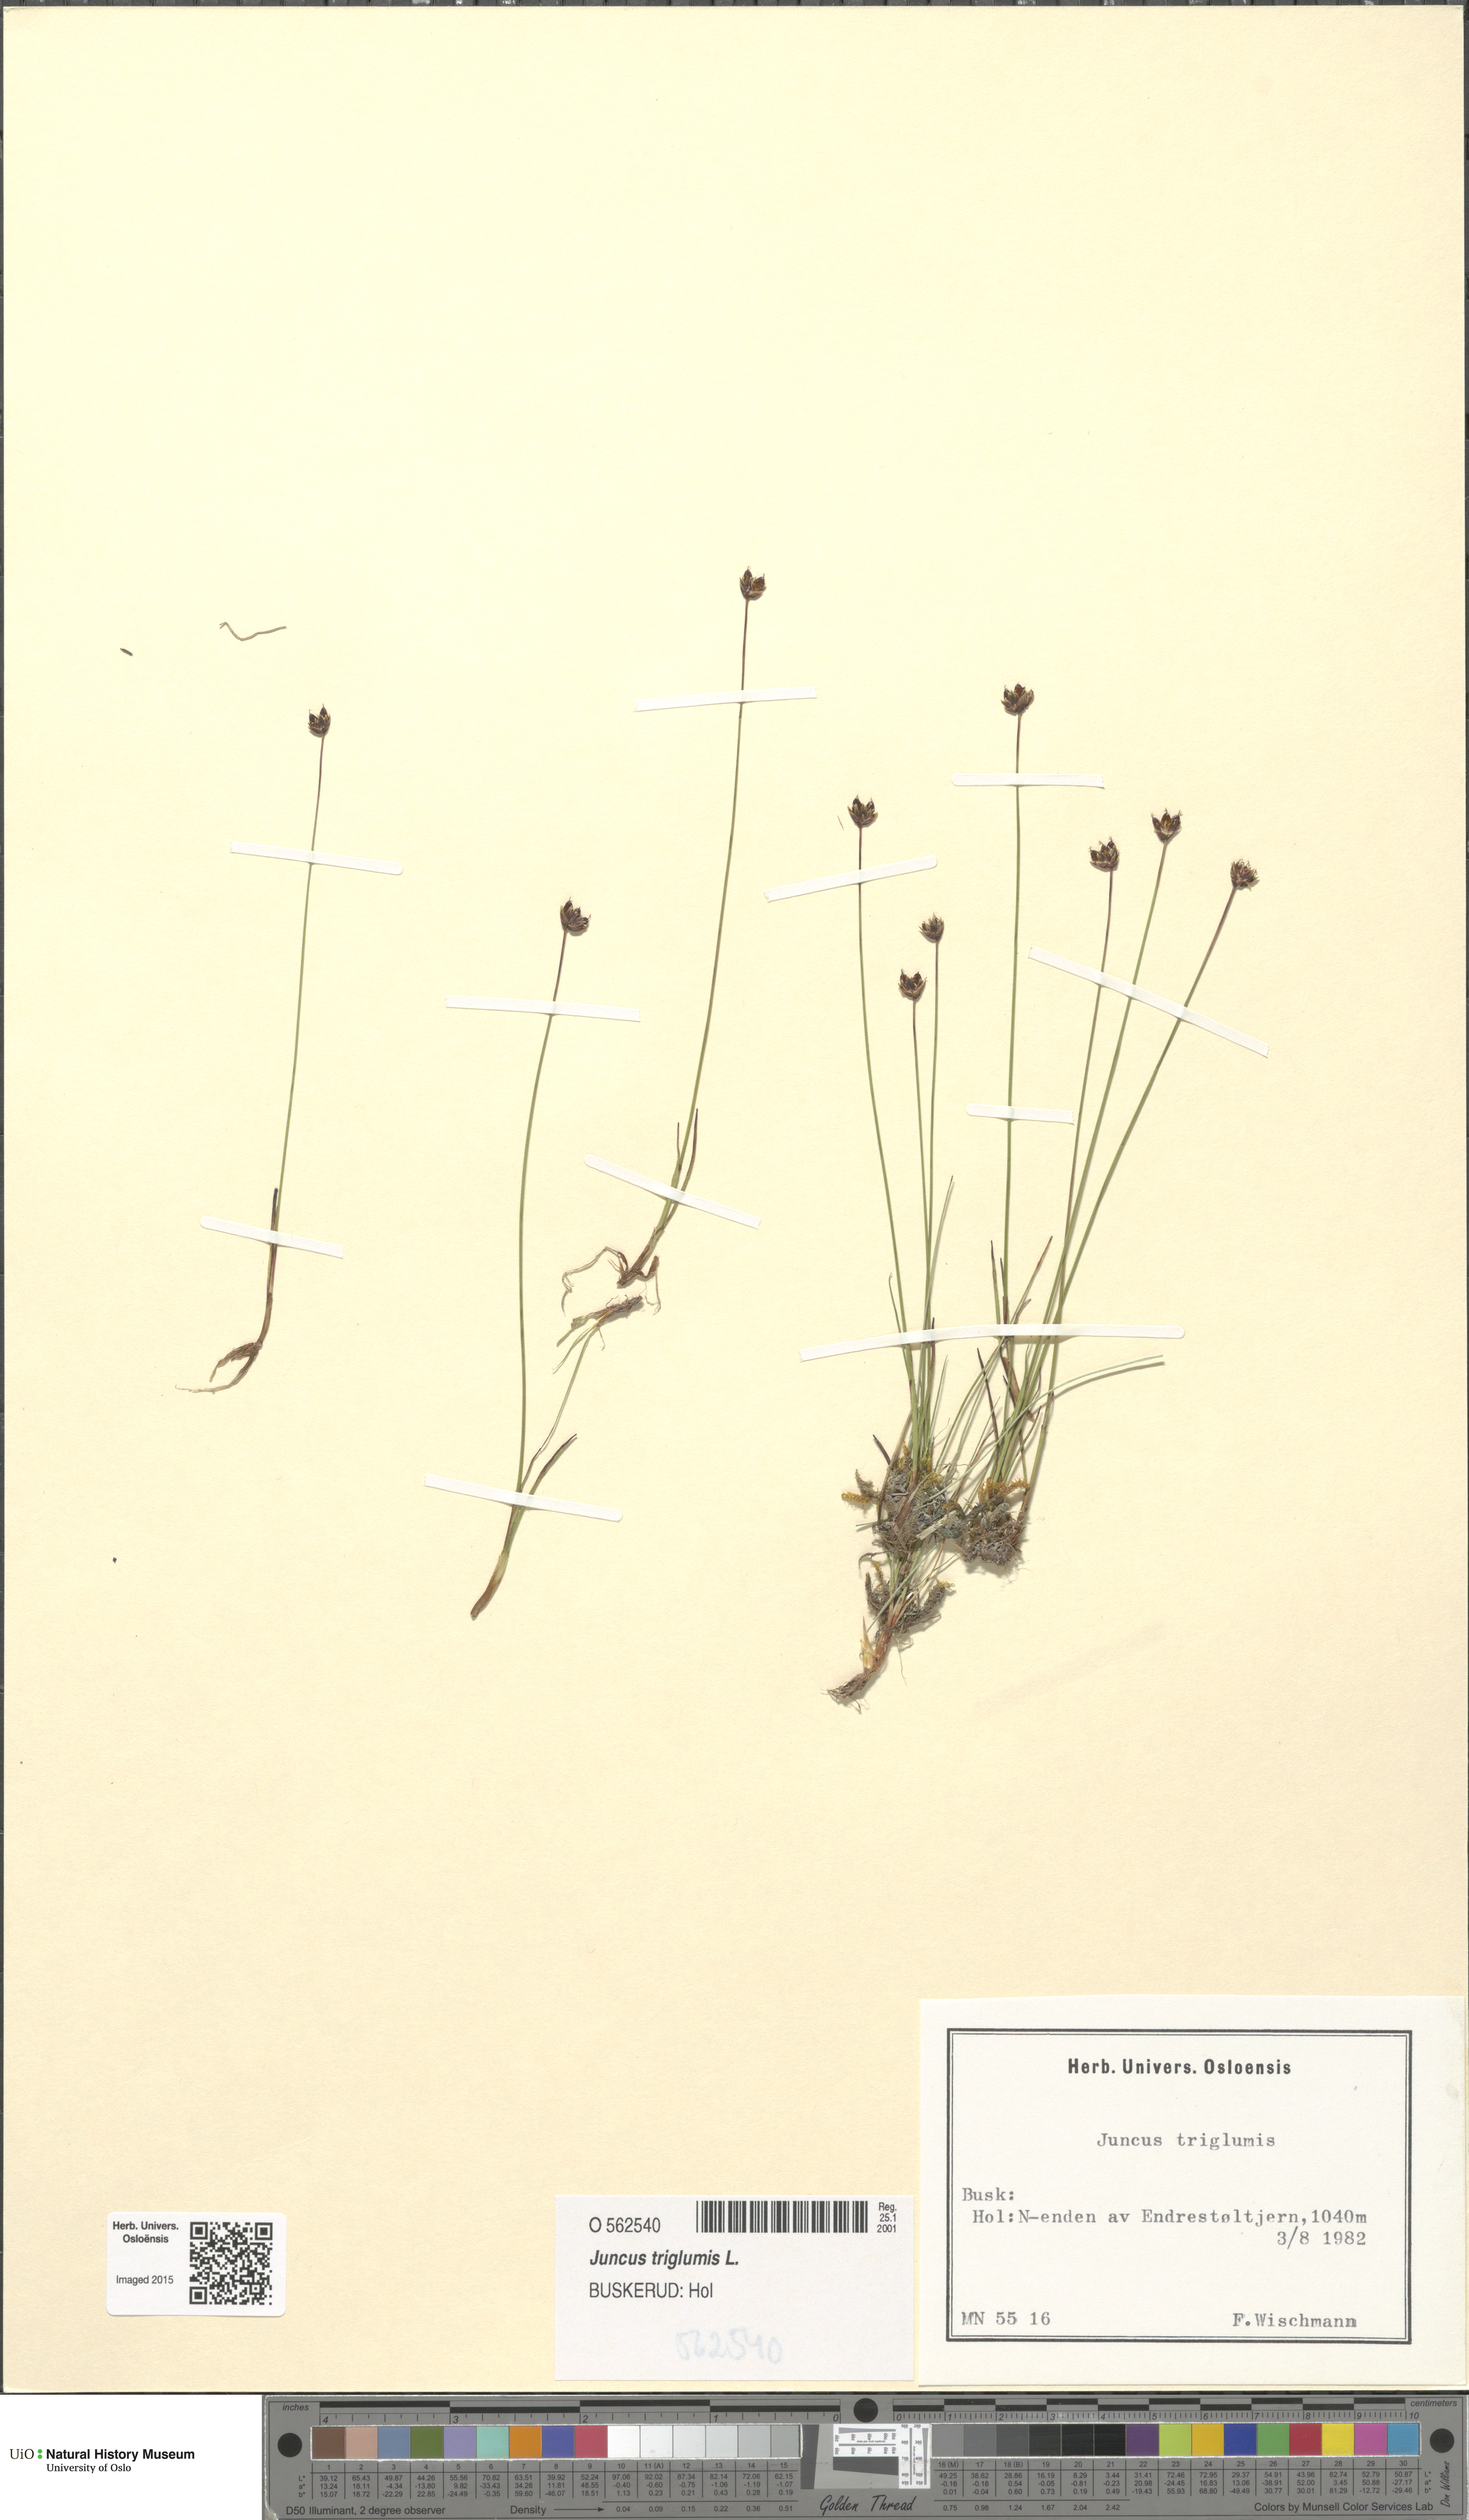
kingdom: Plantae
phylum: Tracheophyta
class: Liliopsida
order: Poales
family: Juncaceae
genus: Juncus
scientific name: Juncus triglumis
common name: Three-flowered rush
